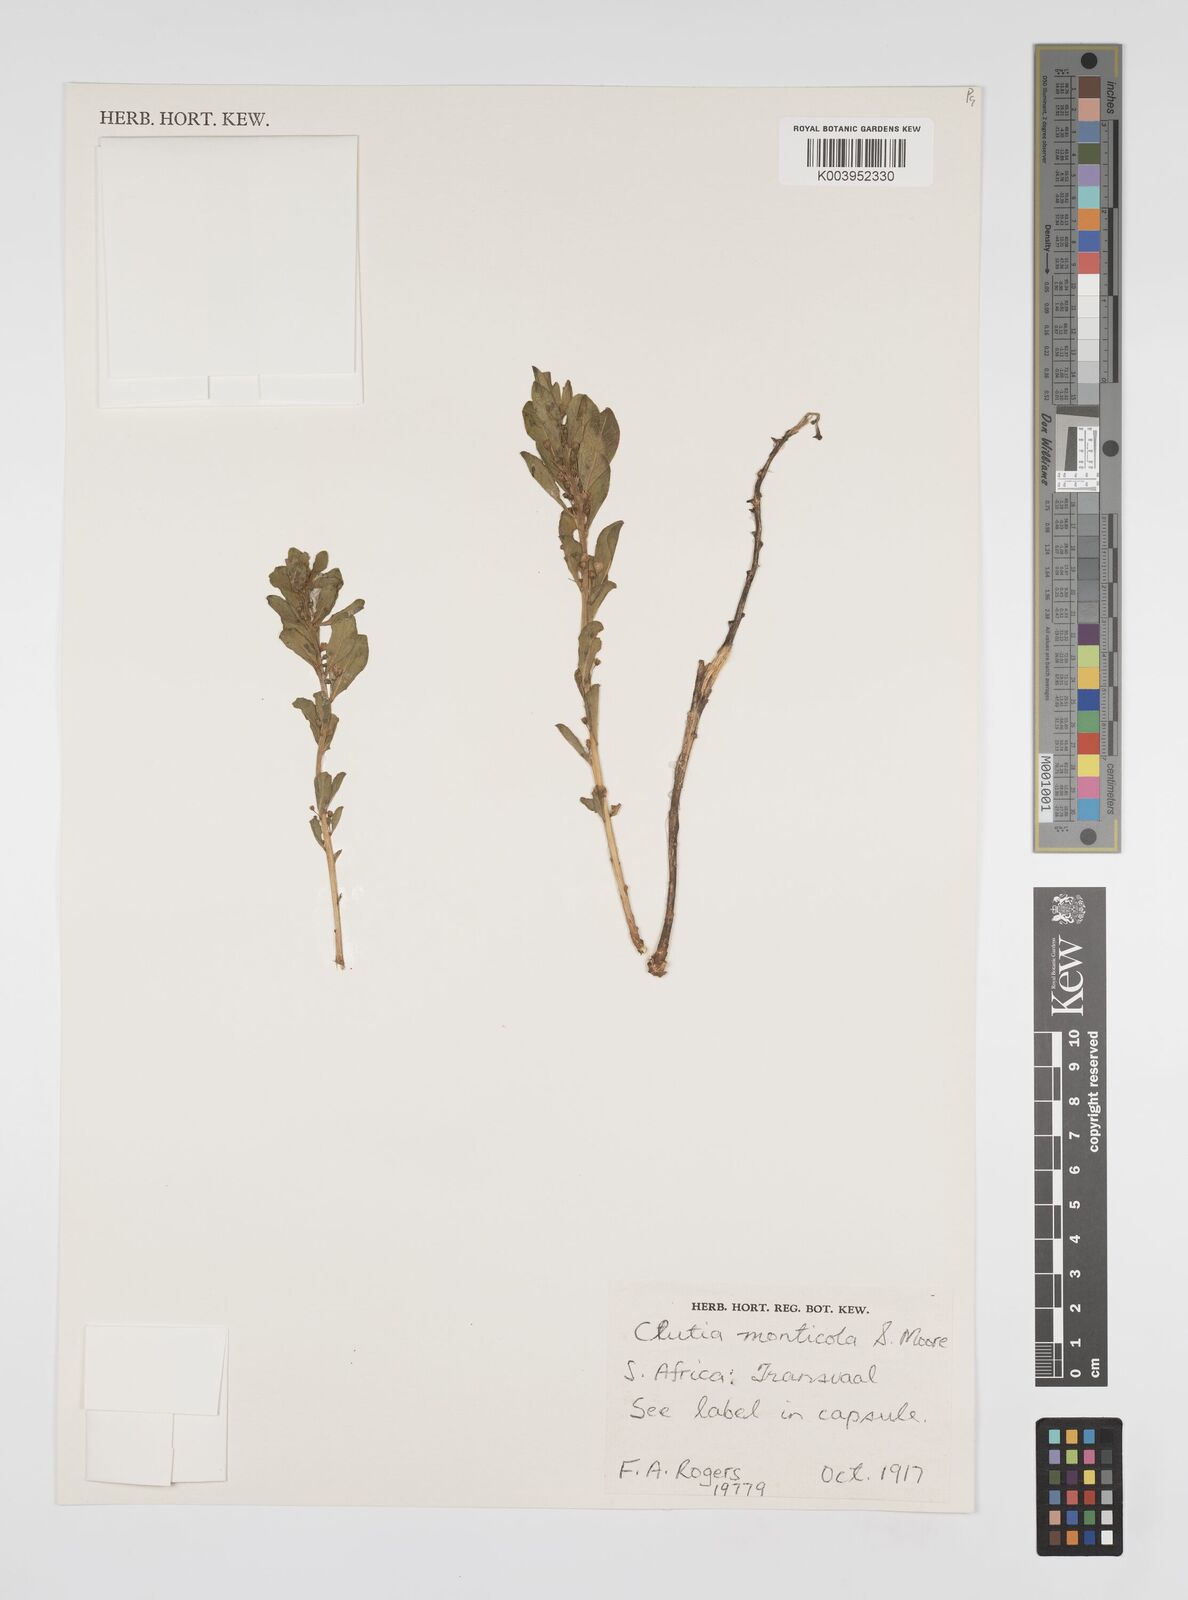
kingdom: Plantae
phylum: Tracheophyta
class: Magnoliopsida
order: Malpighiales
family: Peraceae
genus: Clutia
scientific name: Clutia monticola
